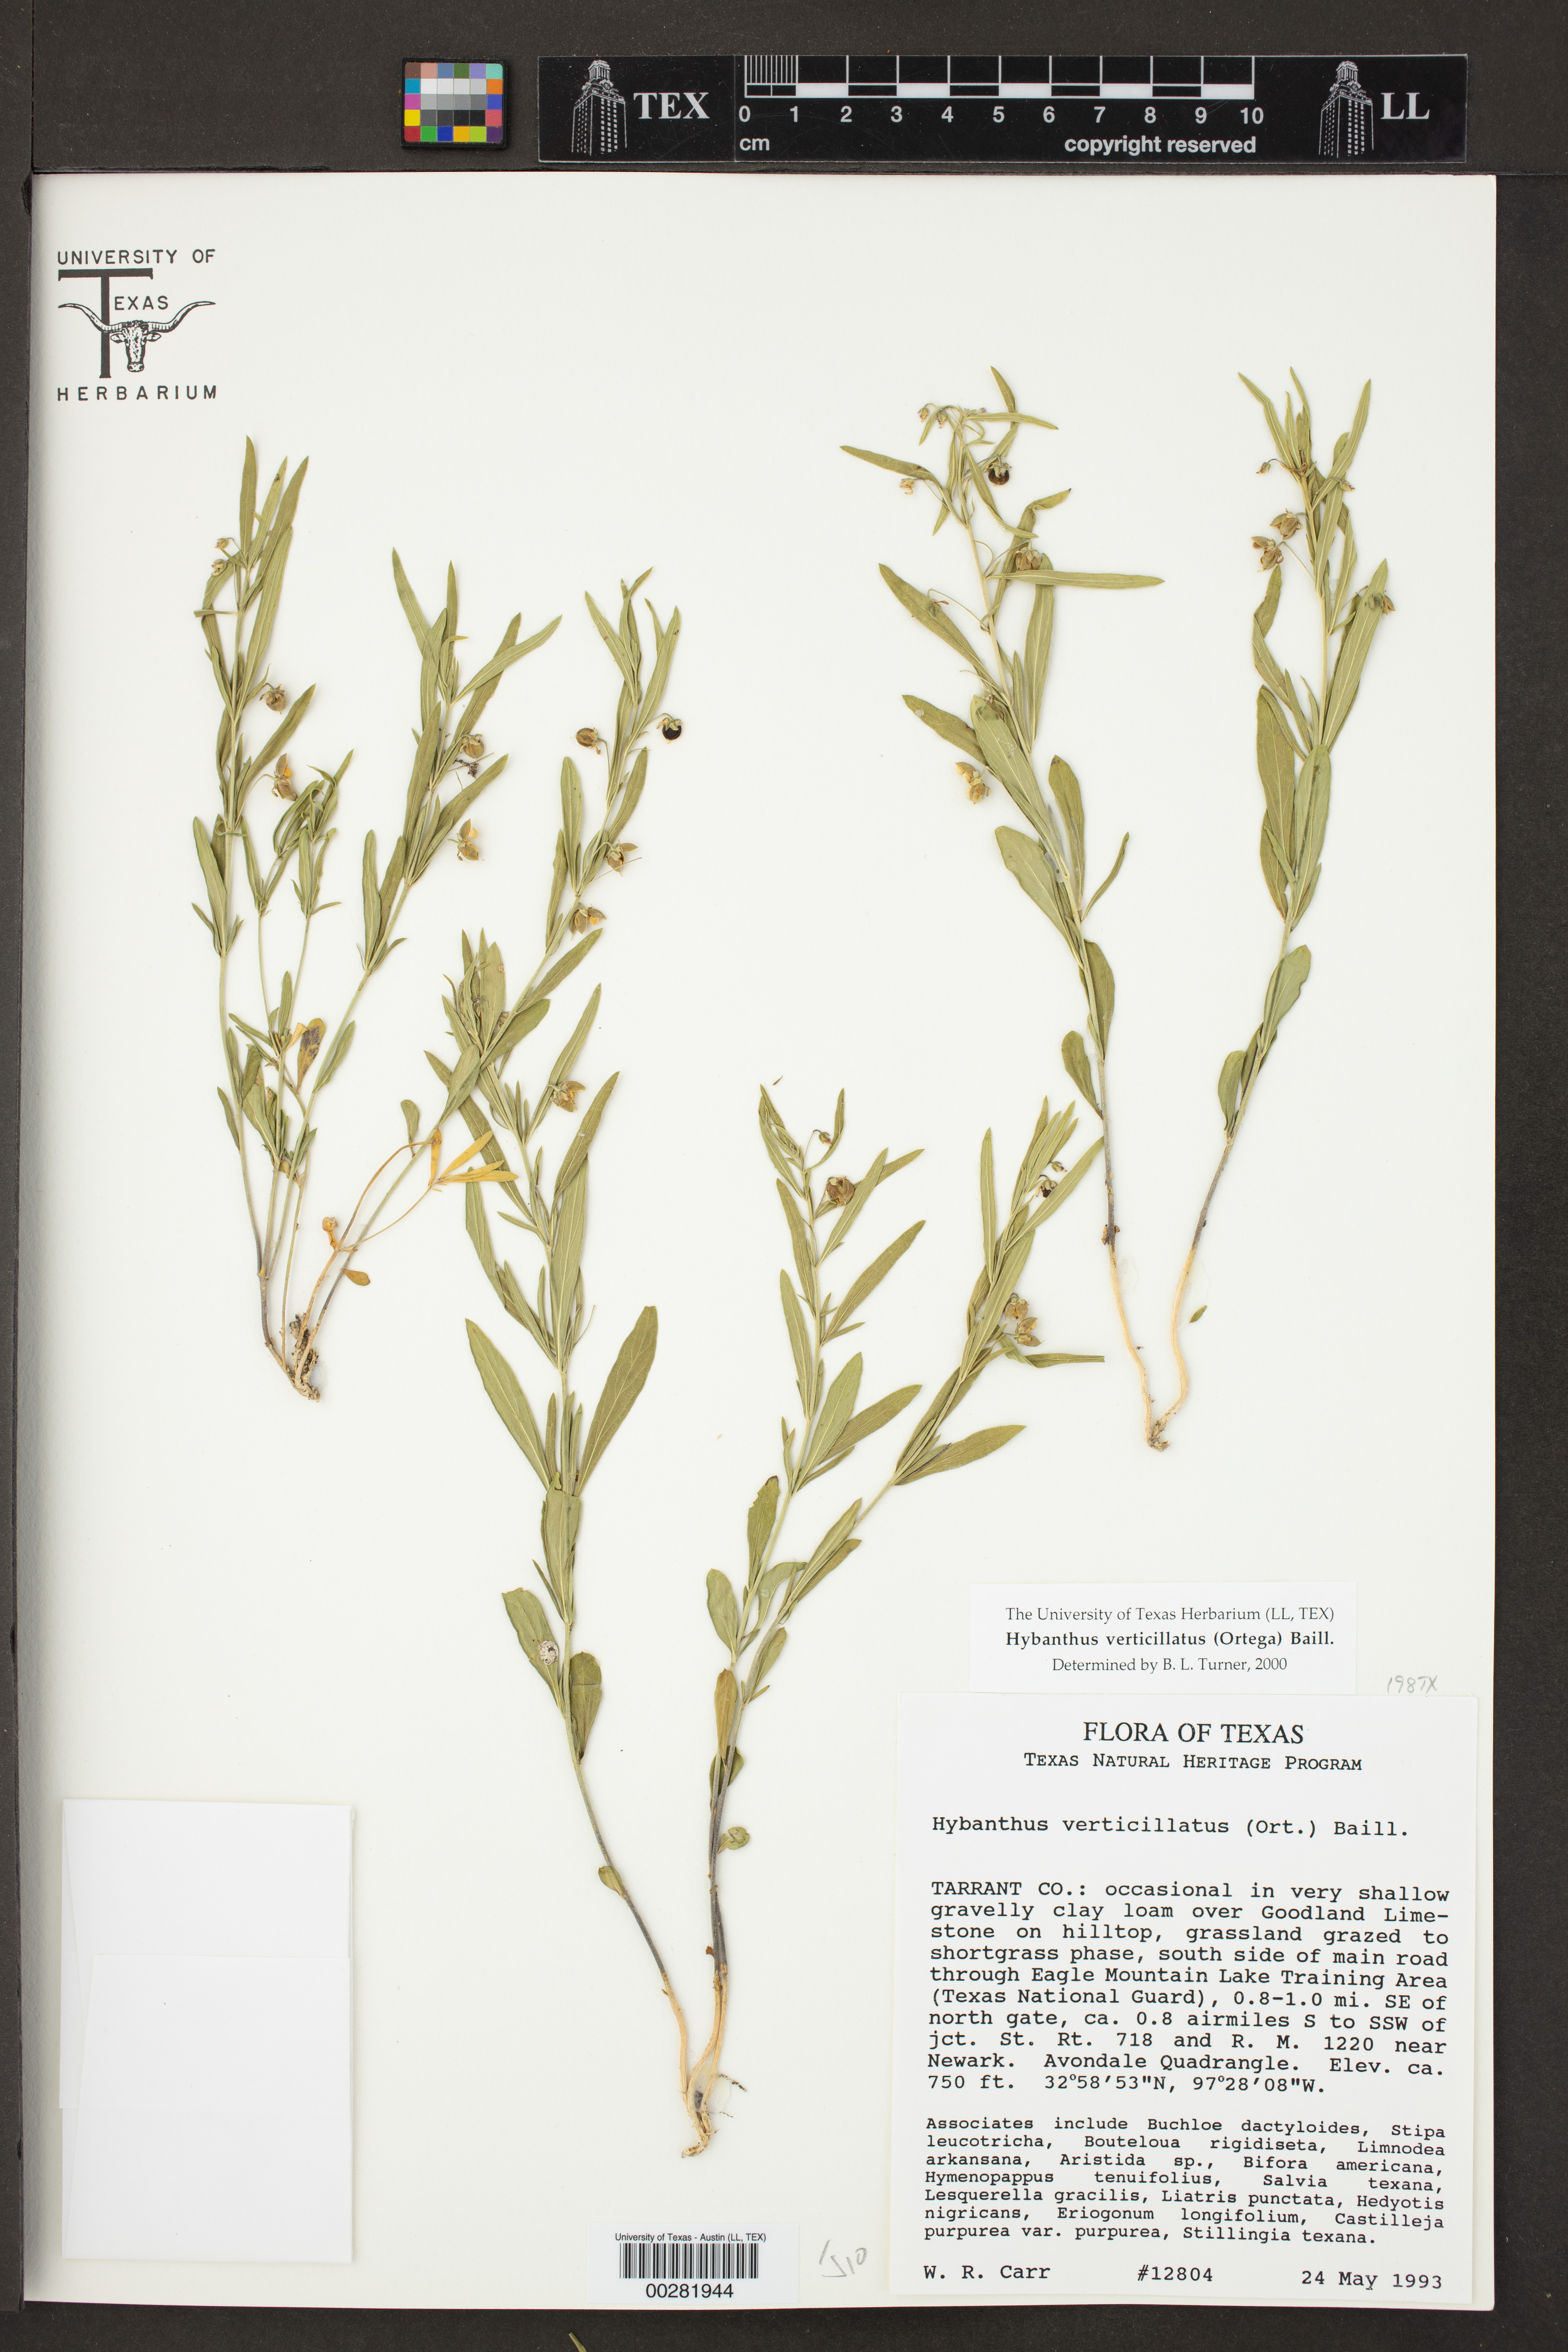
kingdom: Plantae
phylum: Tracheophyta
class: Magnoliopsida
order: Malpighiales
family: Violaceae
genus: Pombalia
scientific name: Pombalia verticillata
